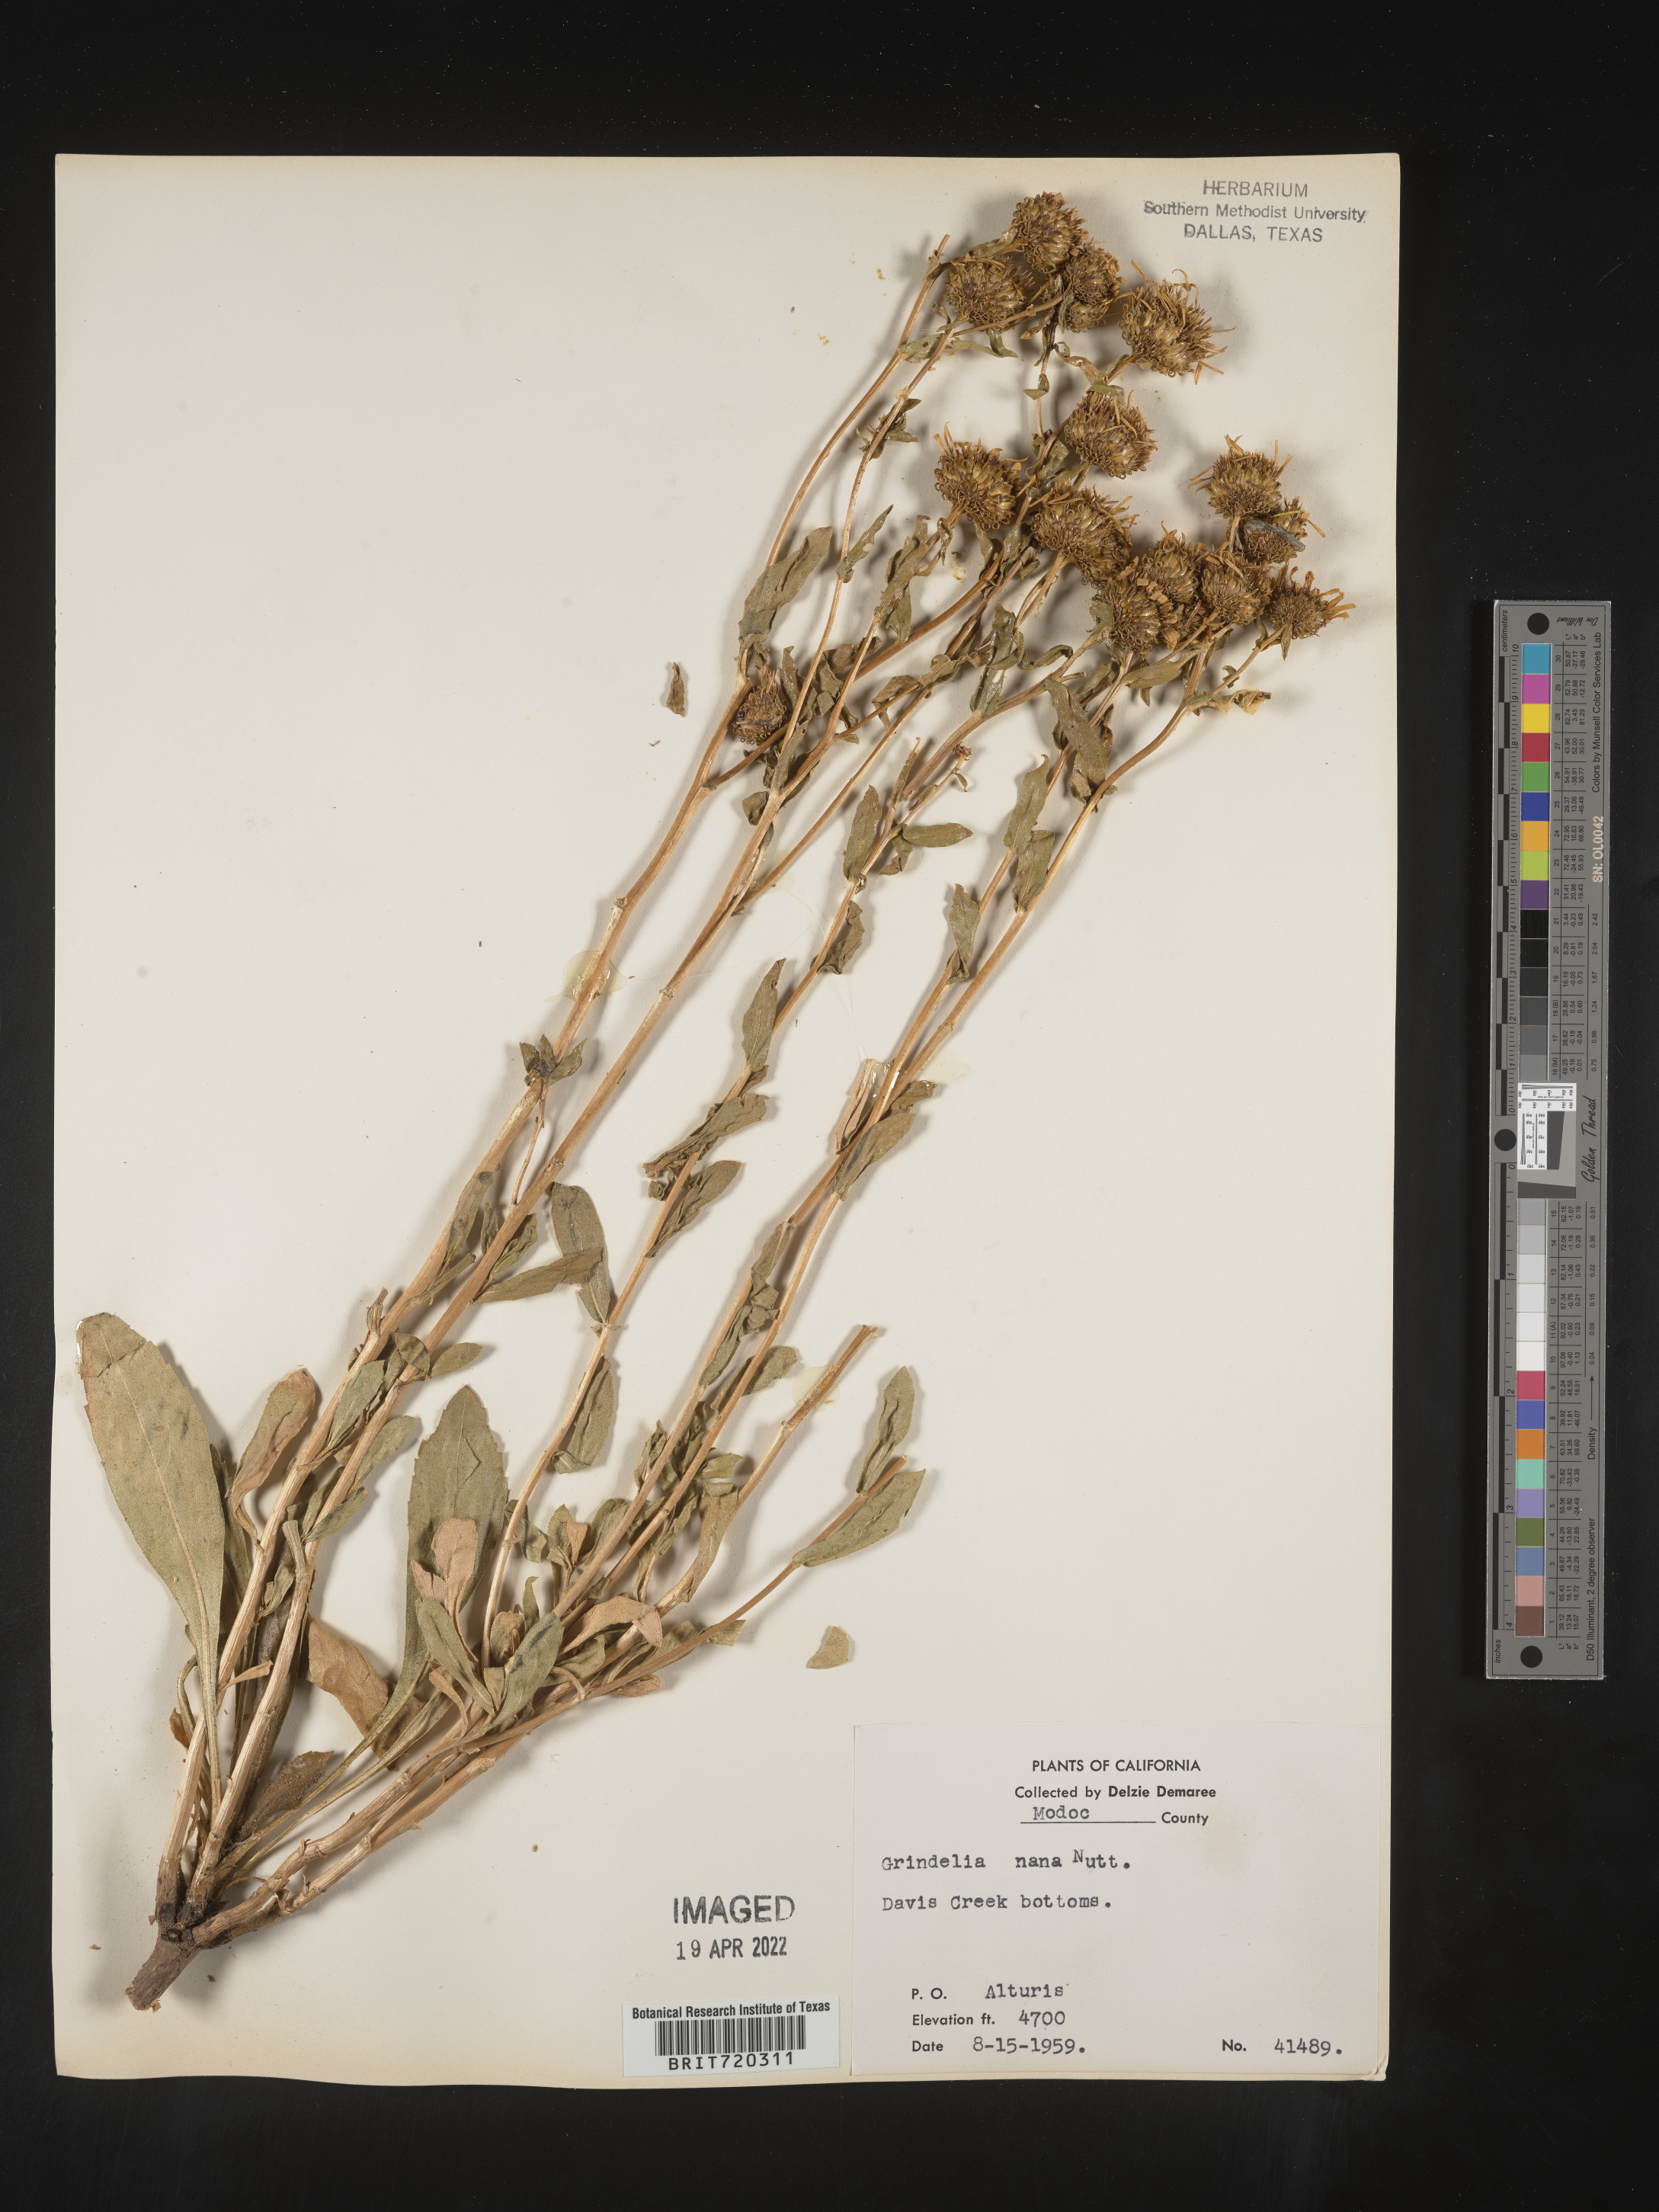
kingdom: Plantae
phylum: Tracheophyta
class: Magnoliopsida
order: Asterales
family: Asteraceae
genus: Grindelia
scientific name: Grindelia hirsutula
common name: Hairy gumweed
